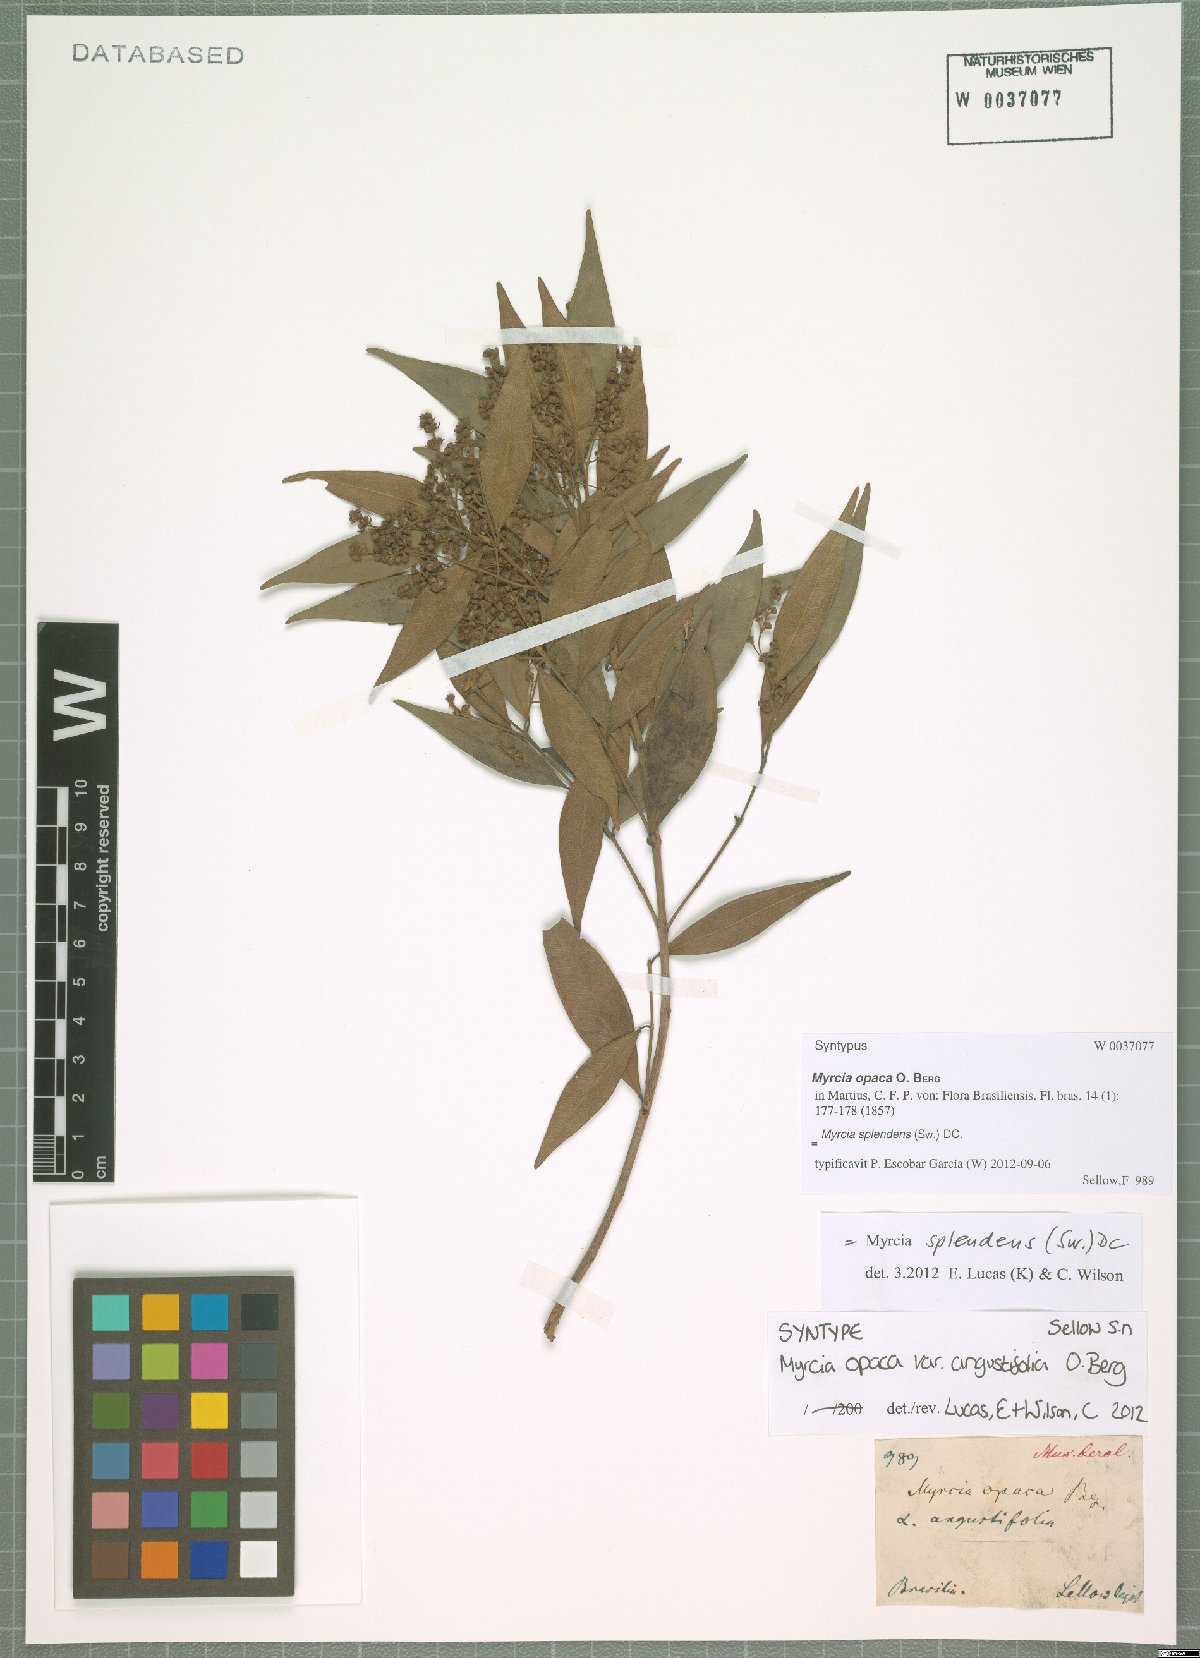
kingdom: Plantae
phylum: Tracheophyta
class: Magnoliopsida
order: Myrtales
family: Myrtaceae
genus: Myrcia
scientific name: Myrcia splendens
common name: Surinam cherry
